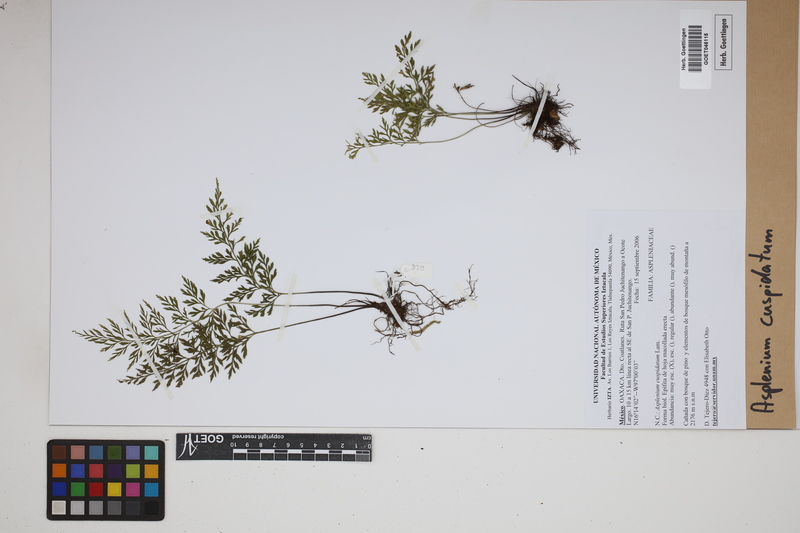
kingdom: Plantae
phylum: Tracheophyta
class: Polypodiopsida
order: Polypodiales
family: Aspleniaceae
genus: Asplenium
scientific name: Asplenium cuspidatum
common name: Eared spleenwort
